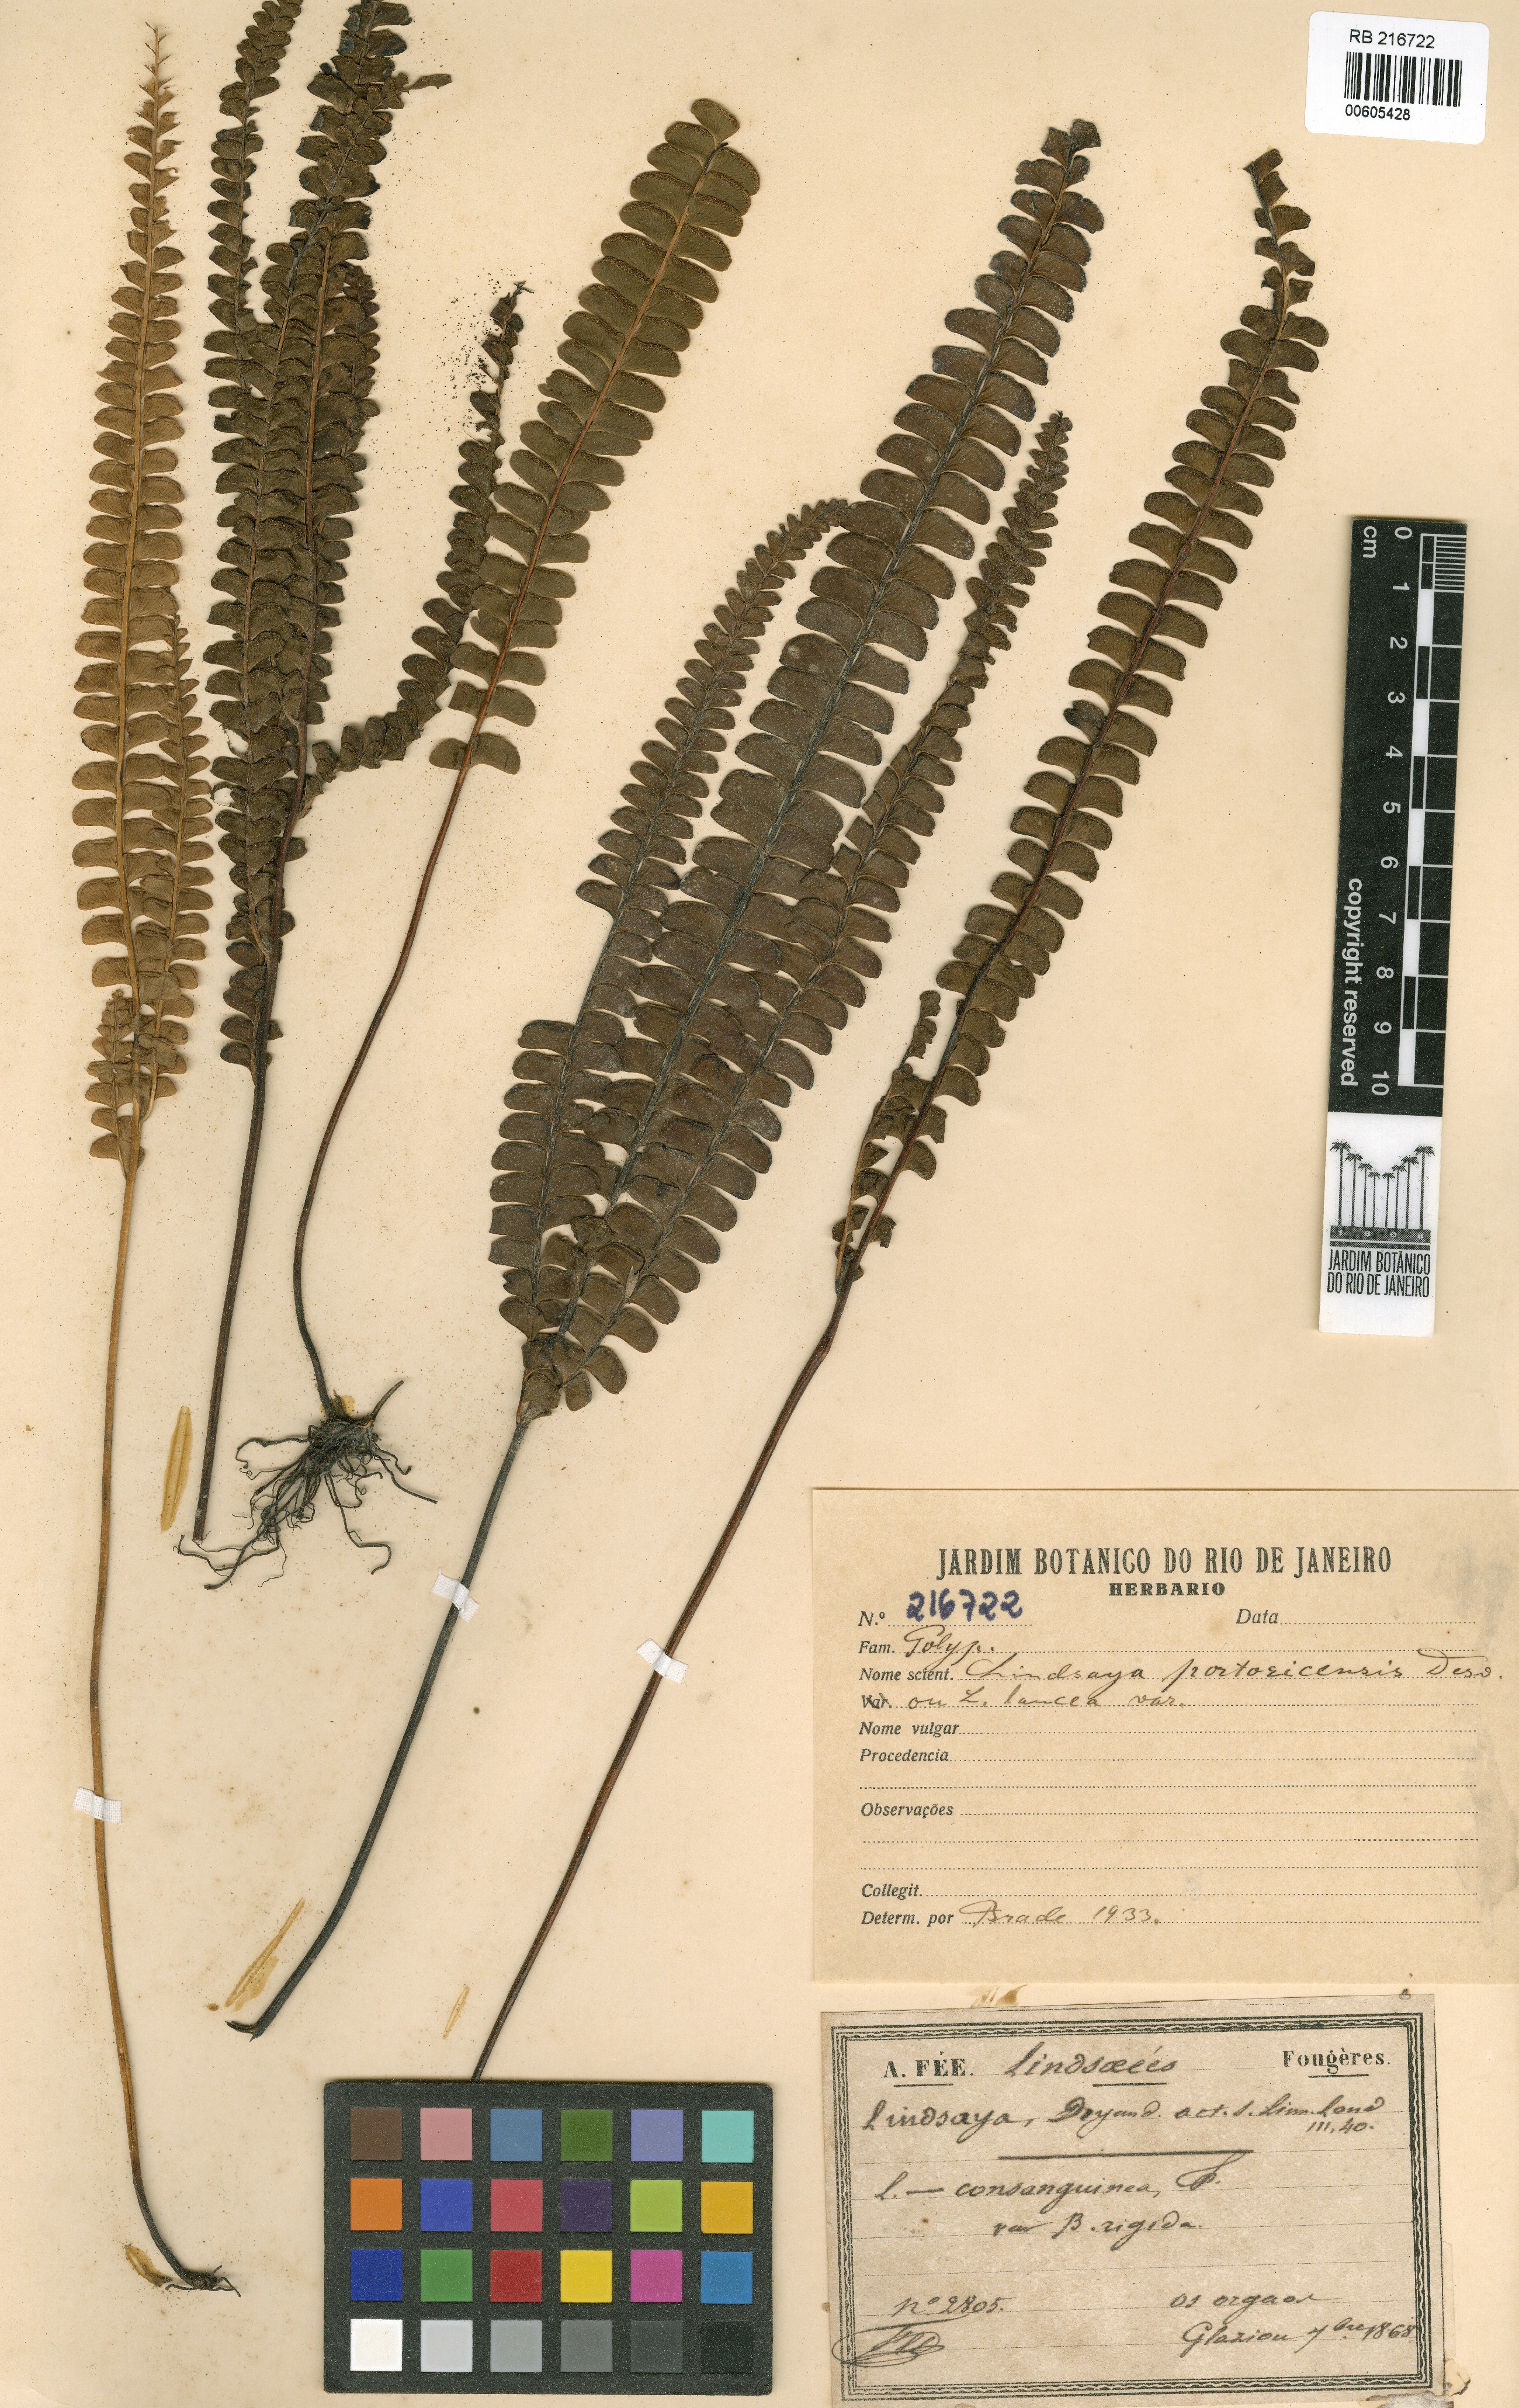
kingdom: Plantae
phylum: Tracheophyta
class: Polypodiopsida
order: Polypodiales
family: Lindsaeaceae
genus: Lindsaea
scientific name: Lindsaea portoricensis
